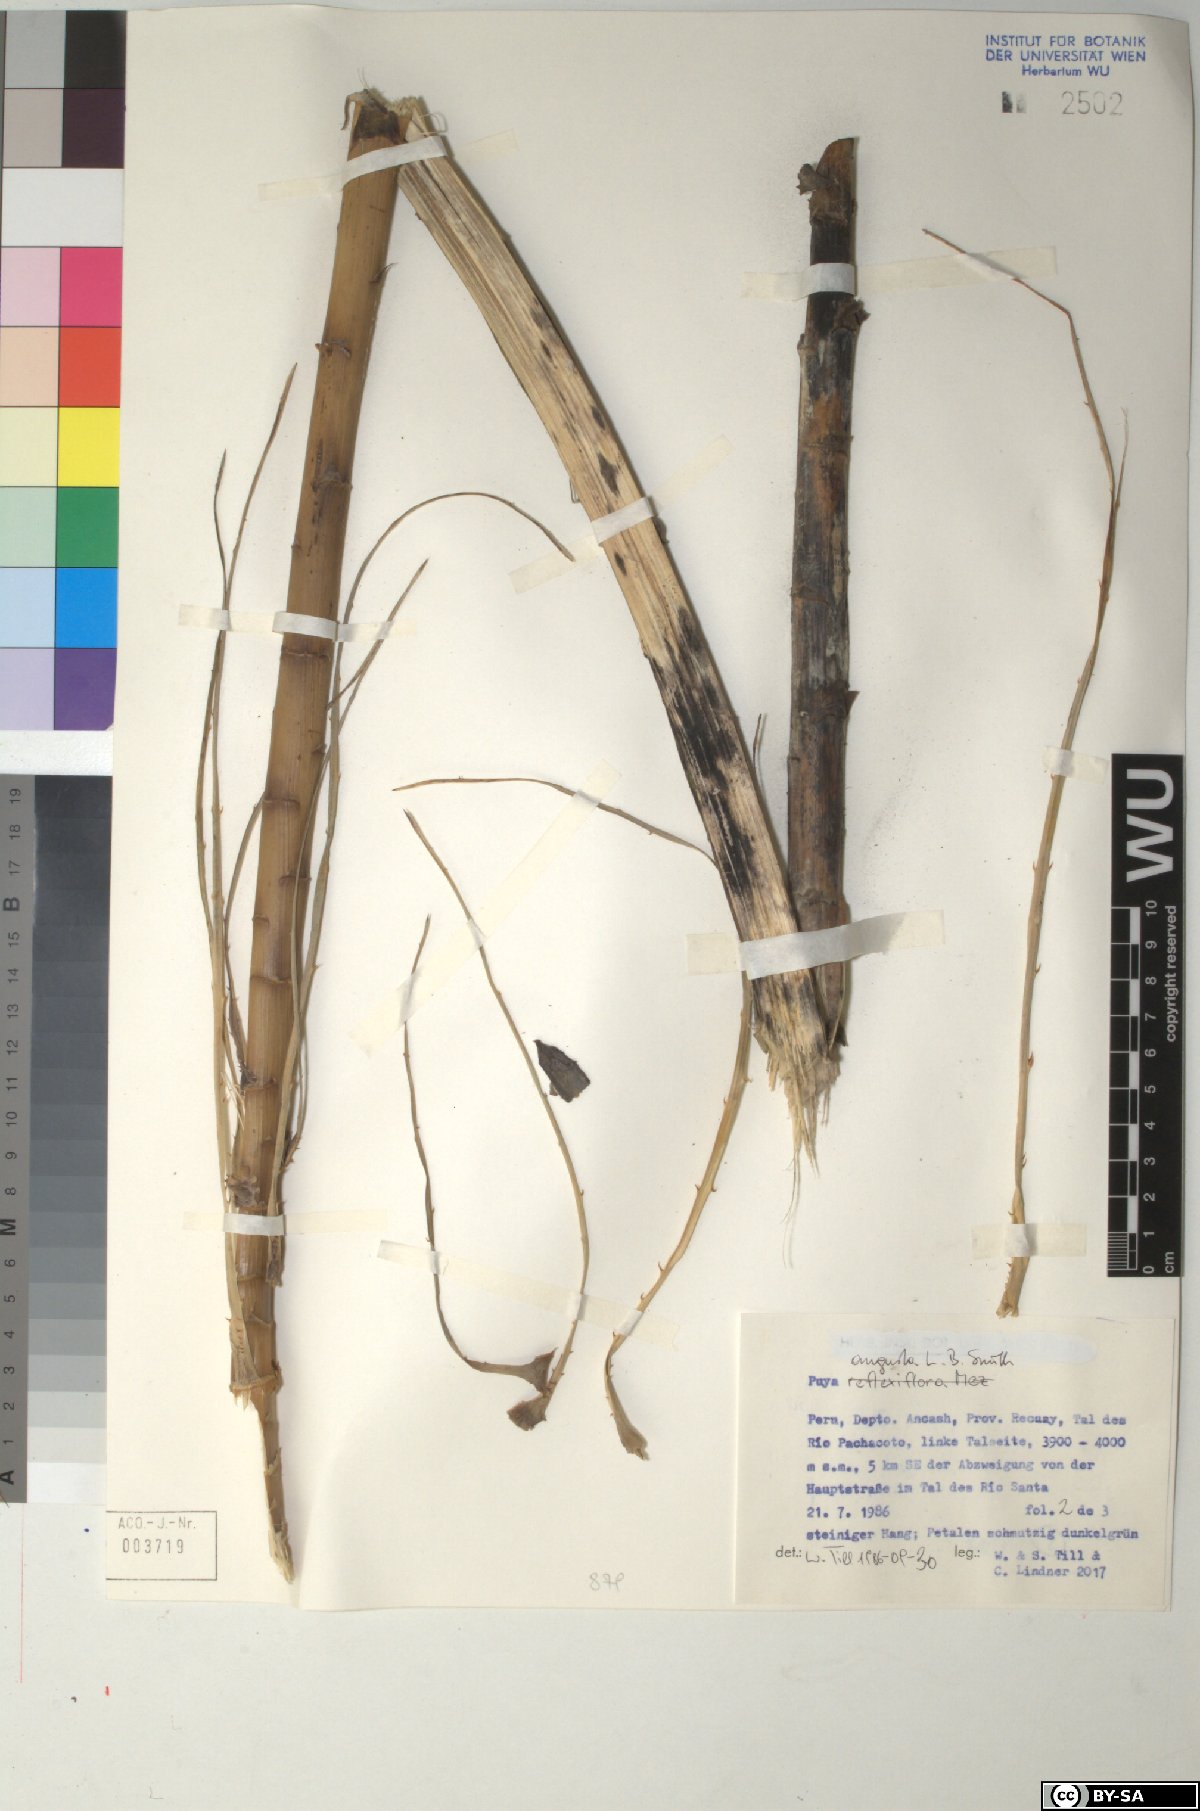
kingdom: Plantae
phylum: Tracheophyta
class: Liliopsida
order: Poales
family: Bromeliaceae
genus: Puya
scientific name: Puya angusta
